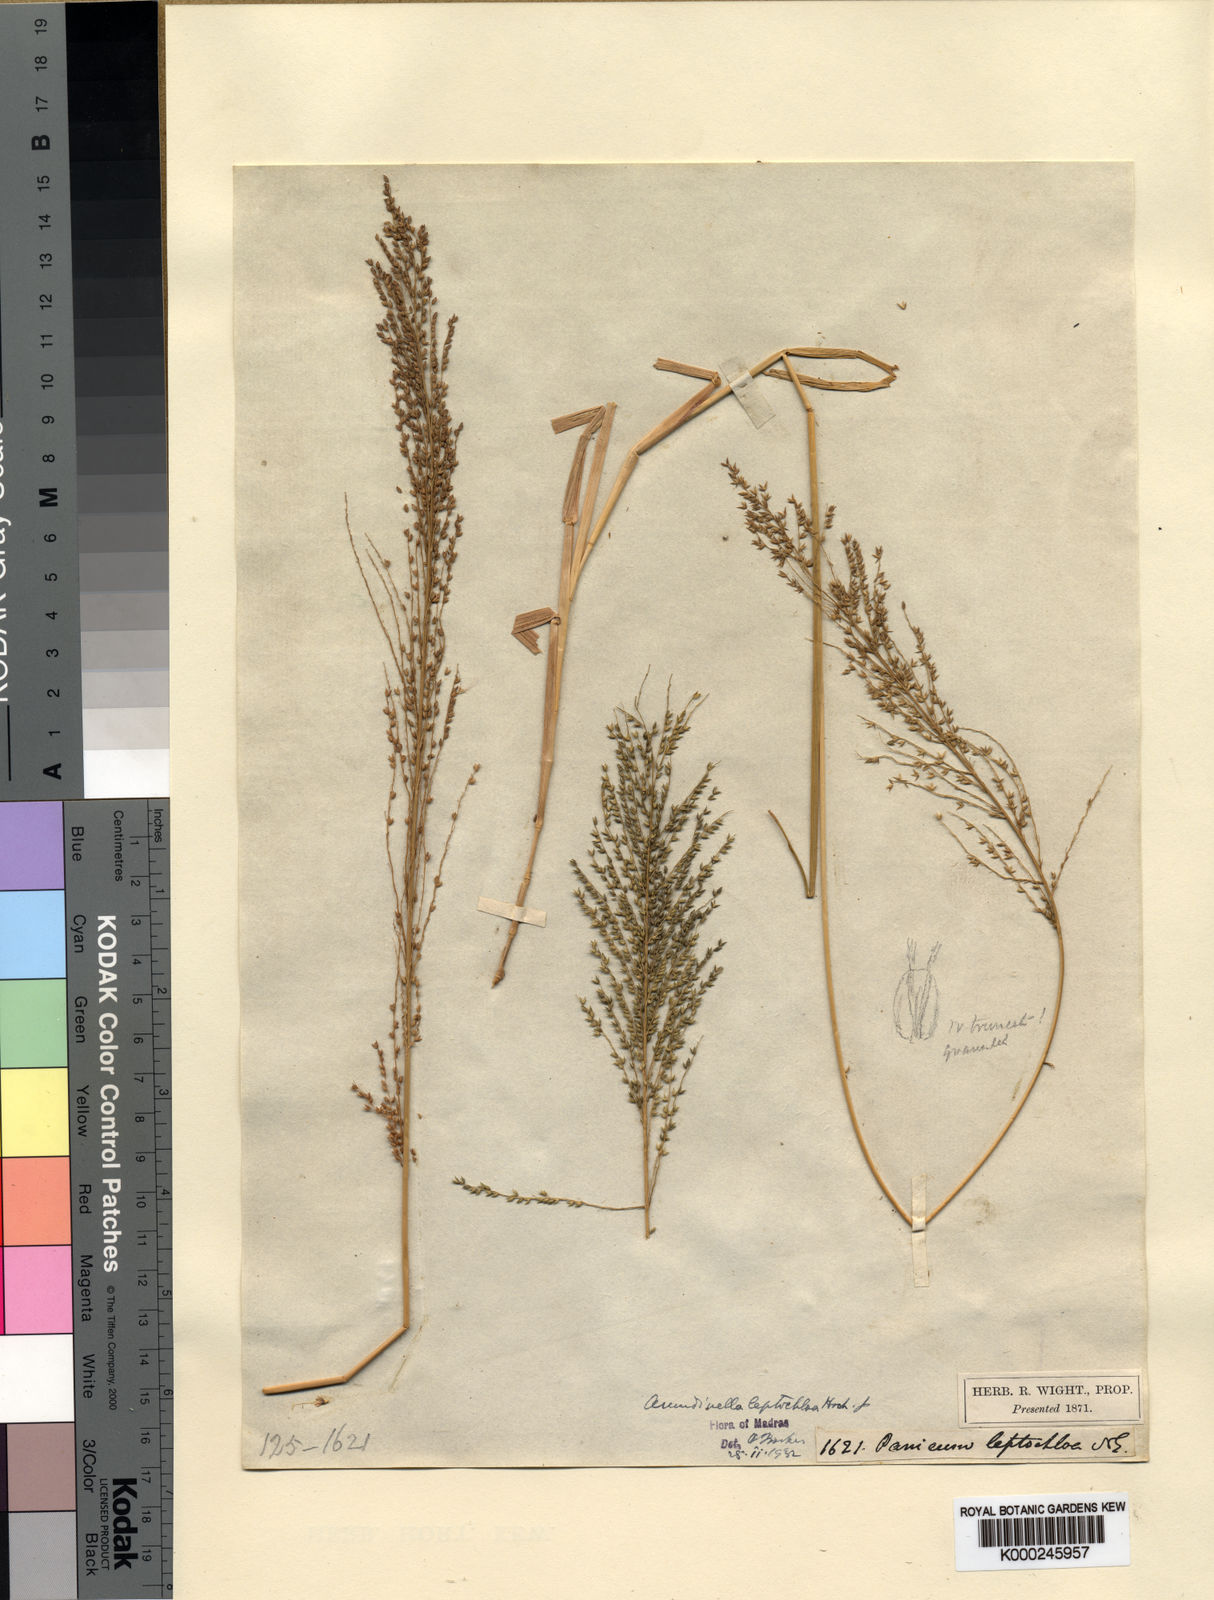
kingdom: Plantae
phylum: Tracheophyta
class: Liliopsida
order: Poales
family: Poaceae
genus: Arundinella
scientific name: Arundinella leptochloa
